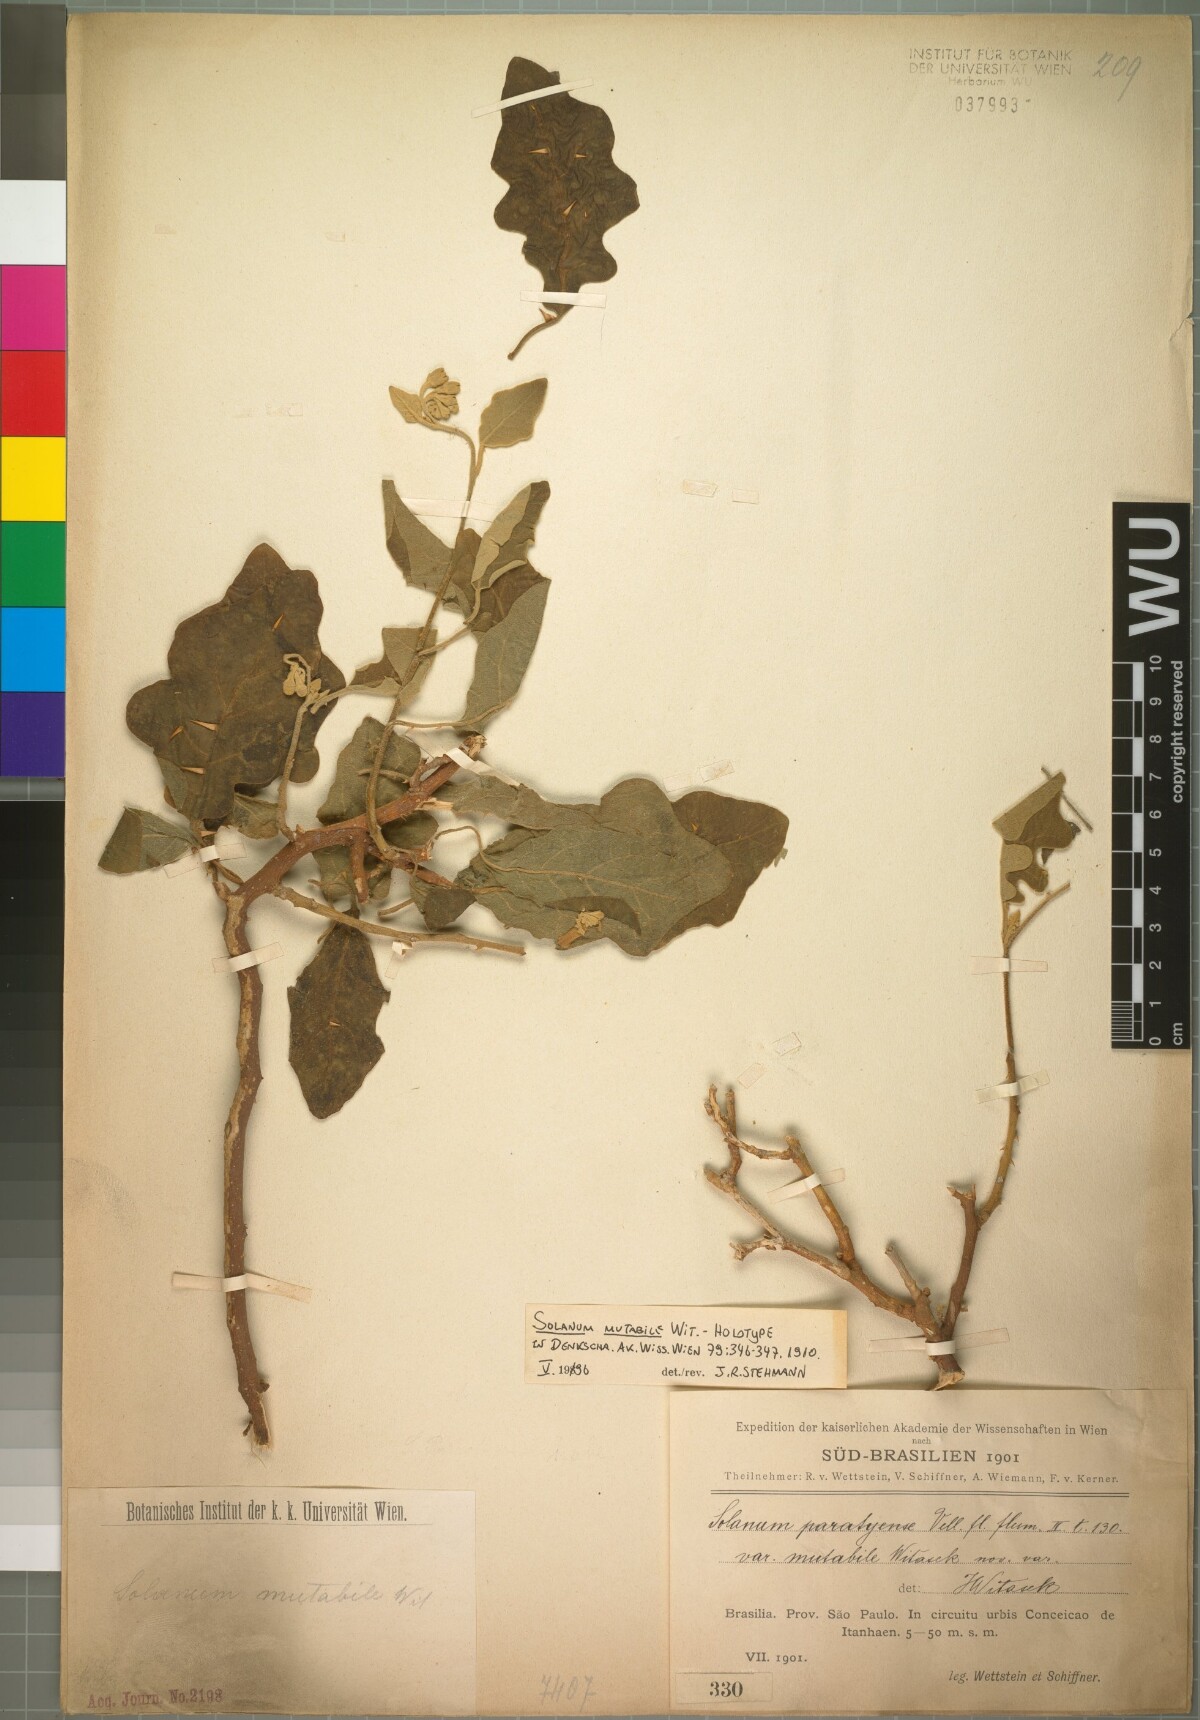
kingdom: Plantae
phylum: Tracheophyta
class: Magnoliopsida
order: Solanales
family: Solanaceae
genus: Solanum
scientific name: Solanum paniculatum
